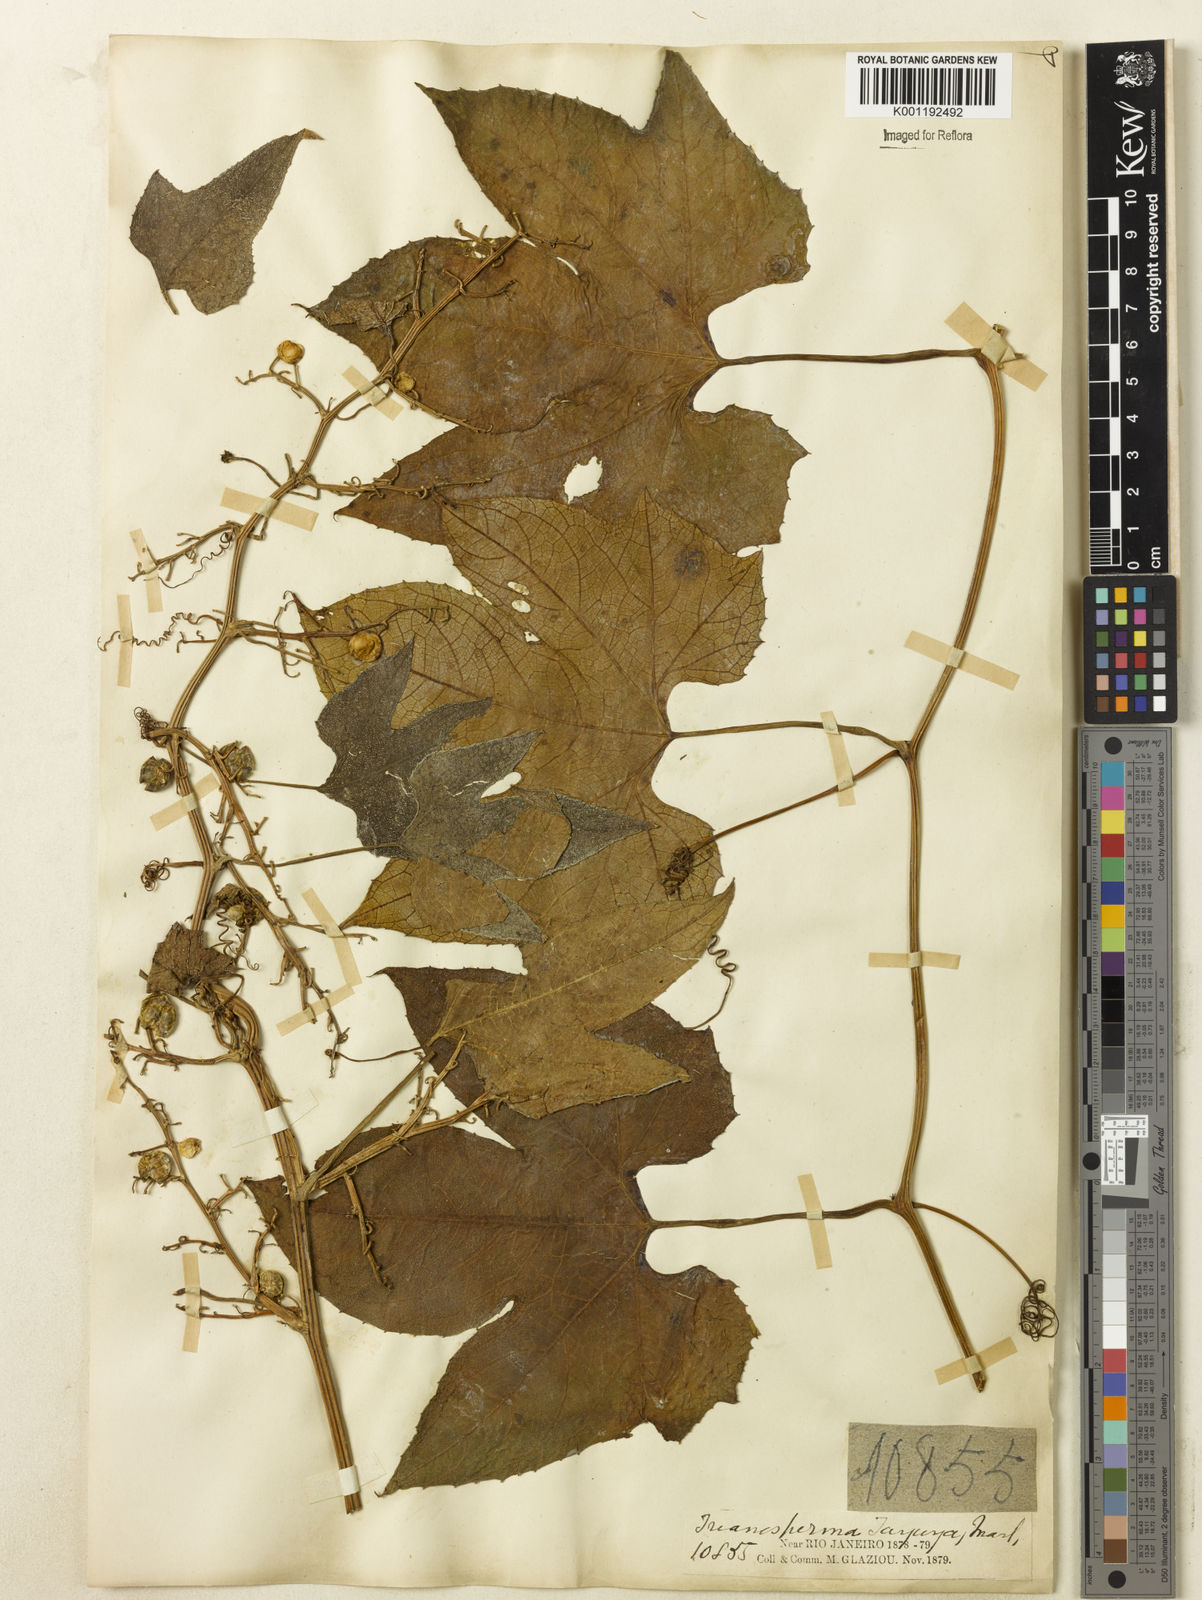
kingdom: Plantae
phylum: Tracheophyta
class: Magnoliopsida
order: Cucurbitales
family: Cucurbitaceae
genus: Cayaponia
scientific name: Cayaponia martiana
